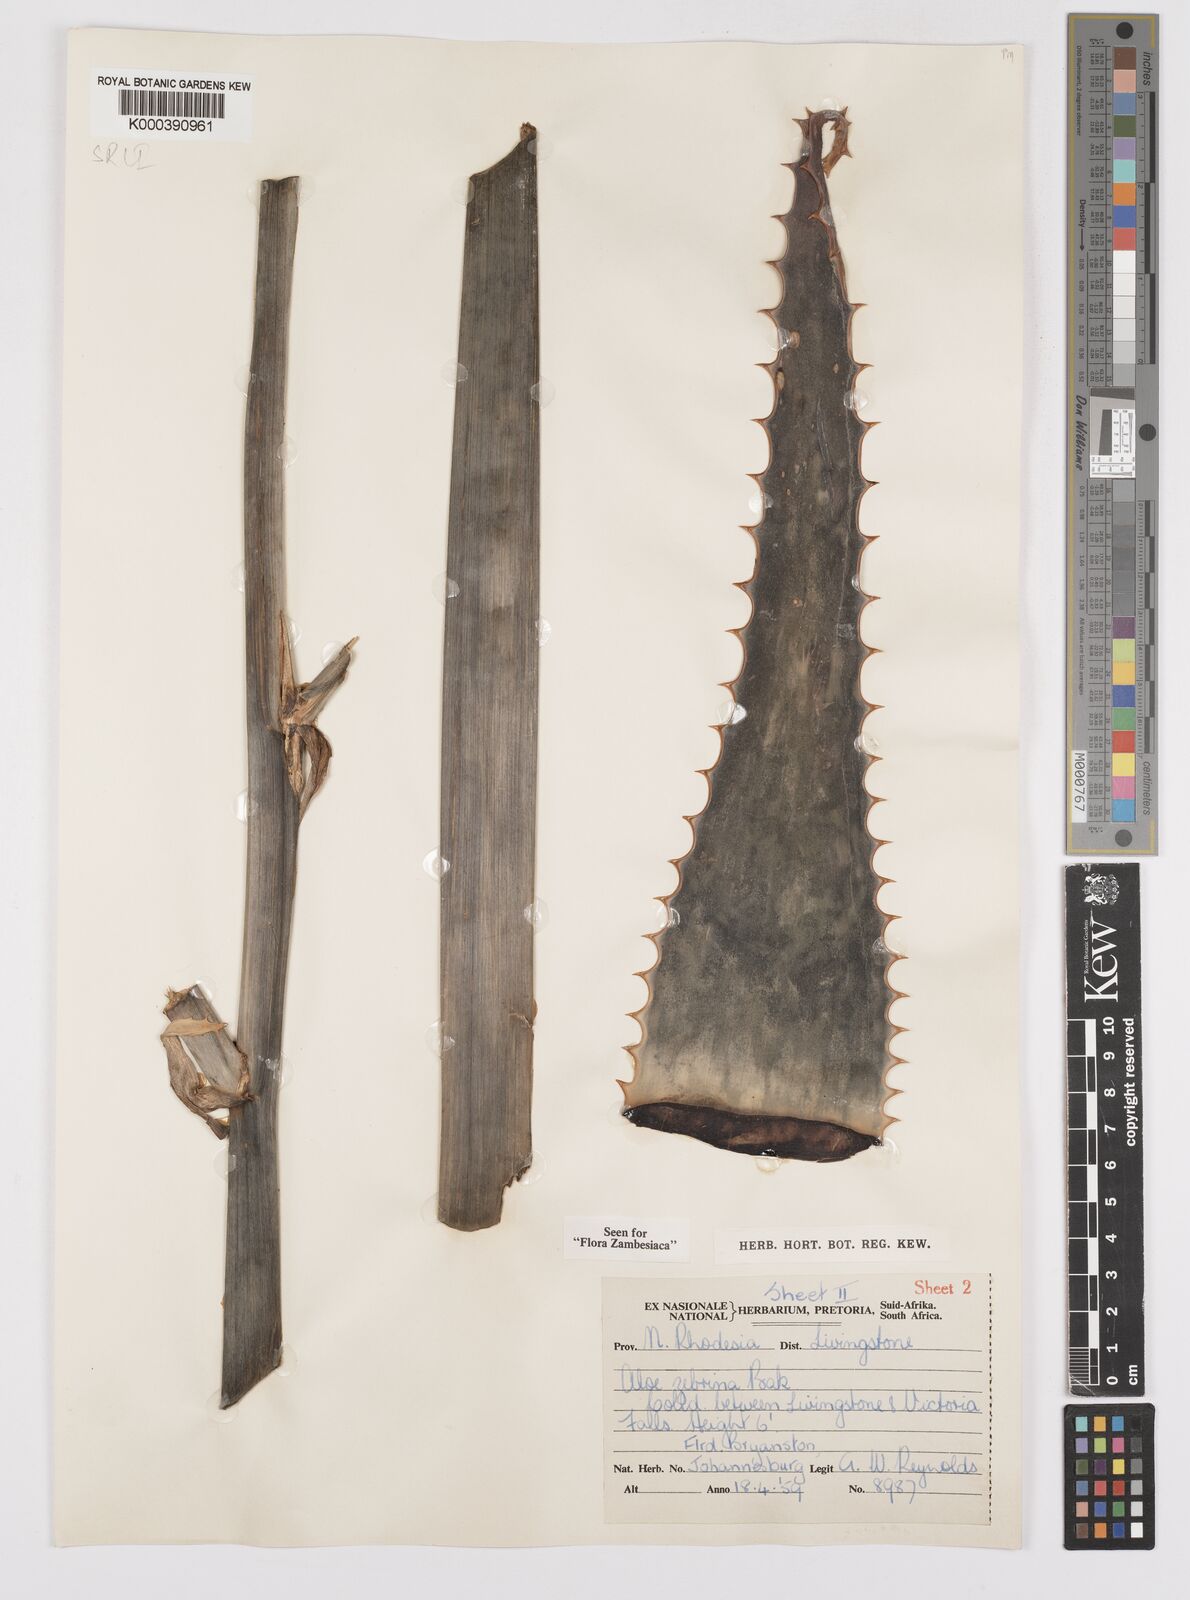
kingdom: Plantae
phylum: Tracheophyta
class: Liliopsida
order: Asparagales
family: Asphodelaceae
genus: Aloe
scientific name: Aloe zebrina
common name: Zebra-leaf aloe
